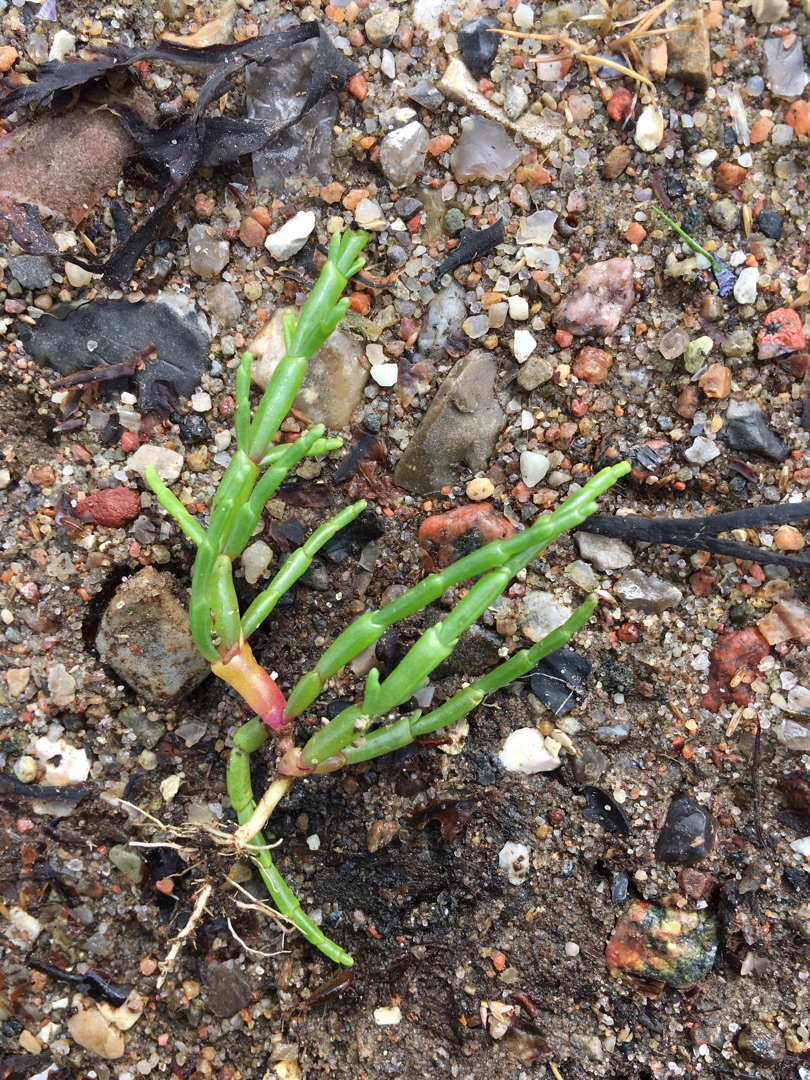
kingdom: Plantae
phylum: Tracheophyta
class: Magnoliopsida
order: Caryophyllales
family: Amaranthaceae
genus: Salicornia
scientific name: Salicornia europaea
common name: Almindelig salturt
